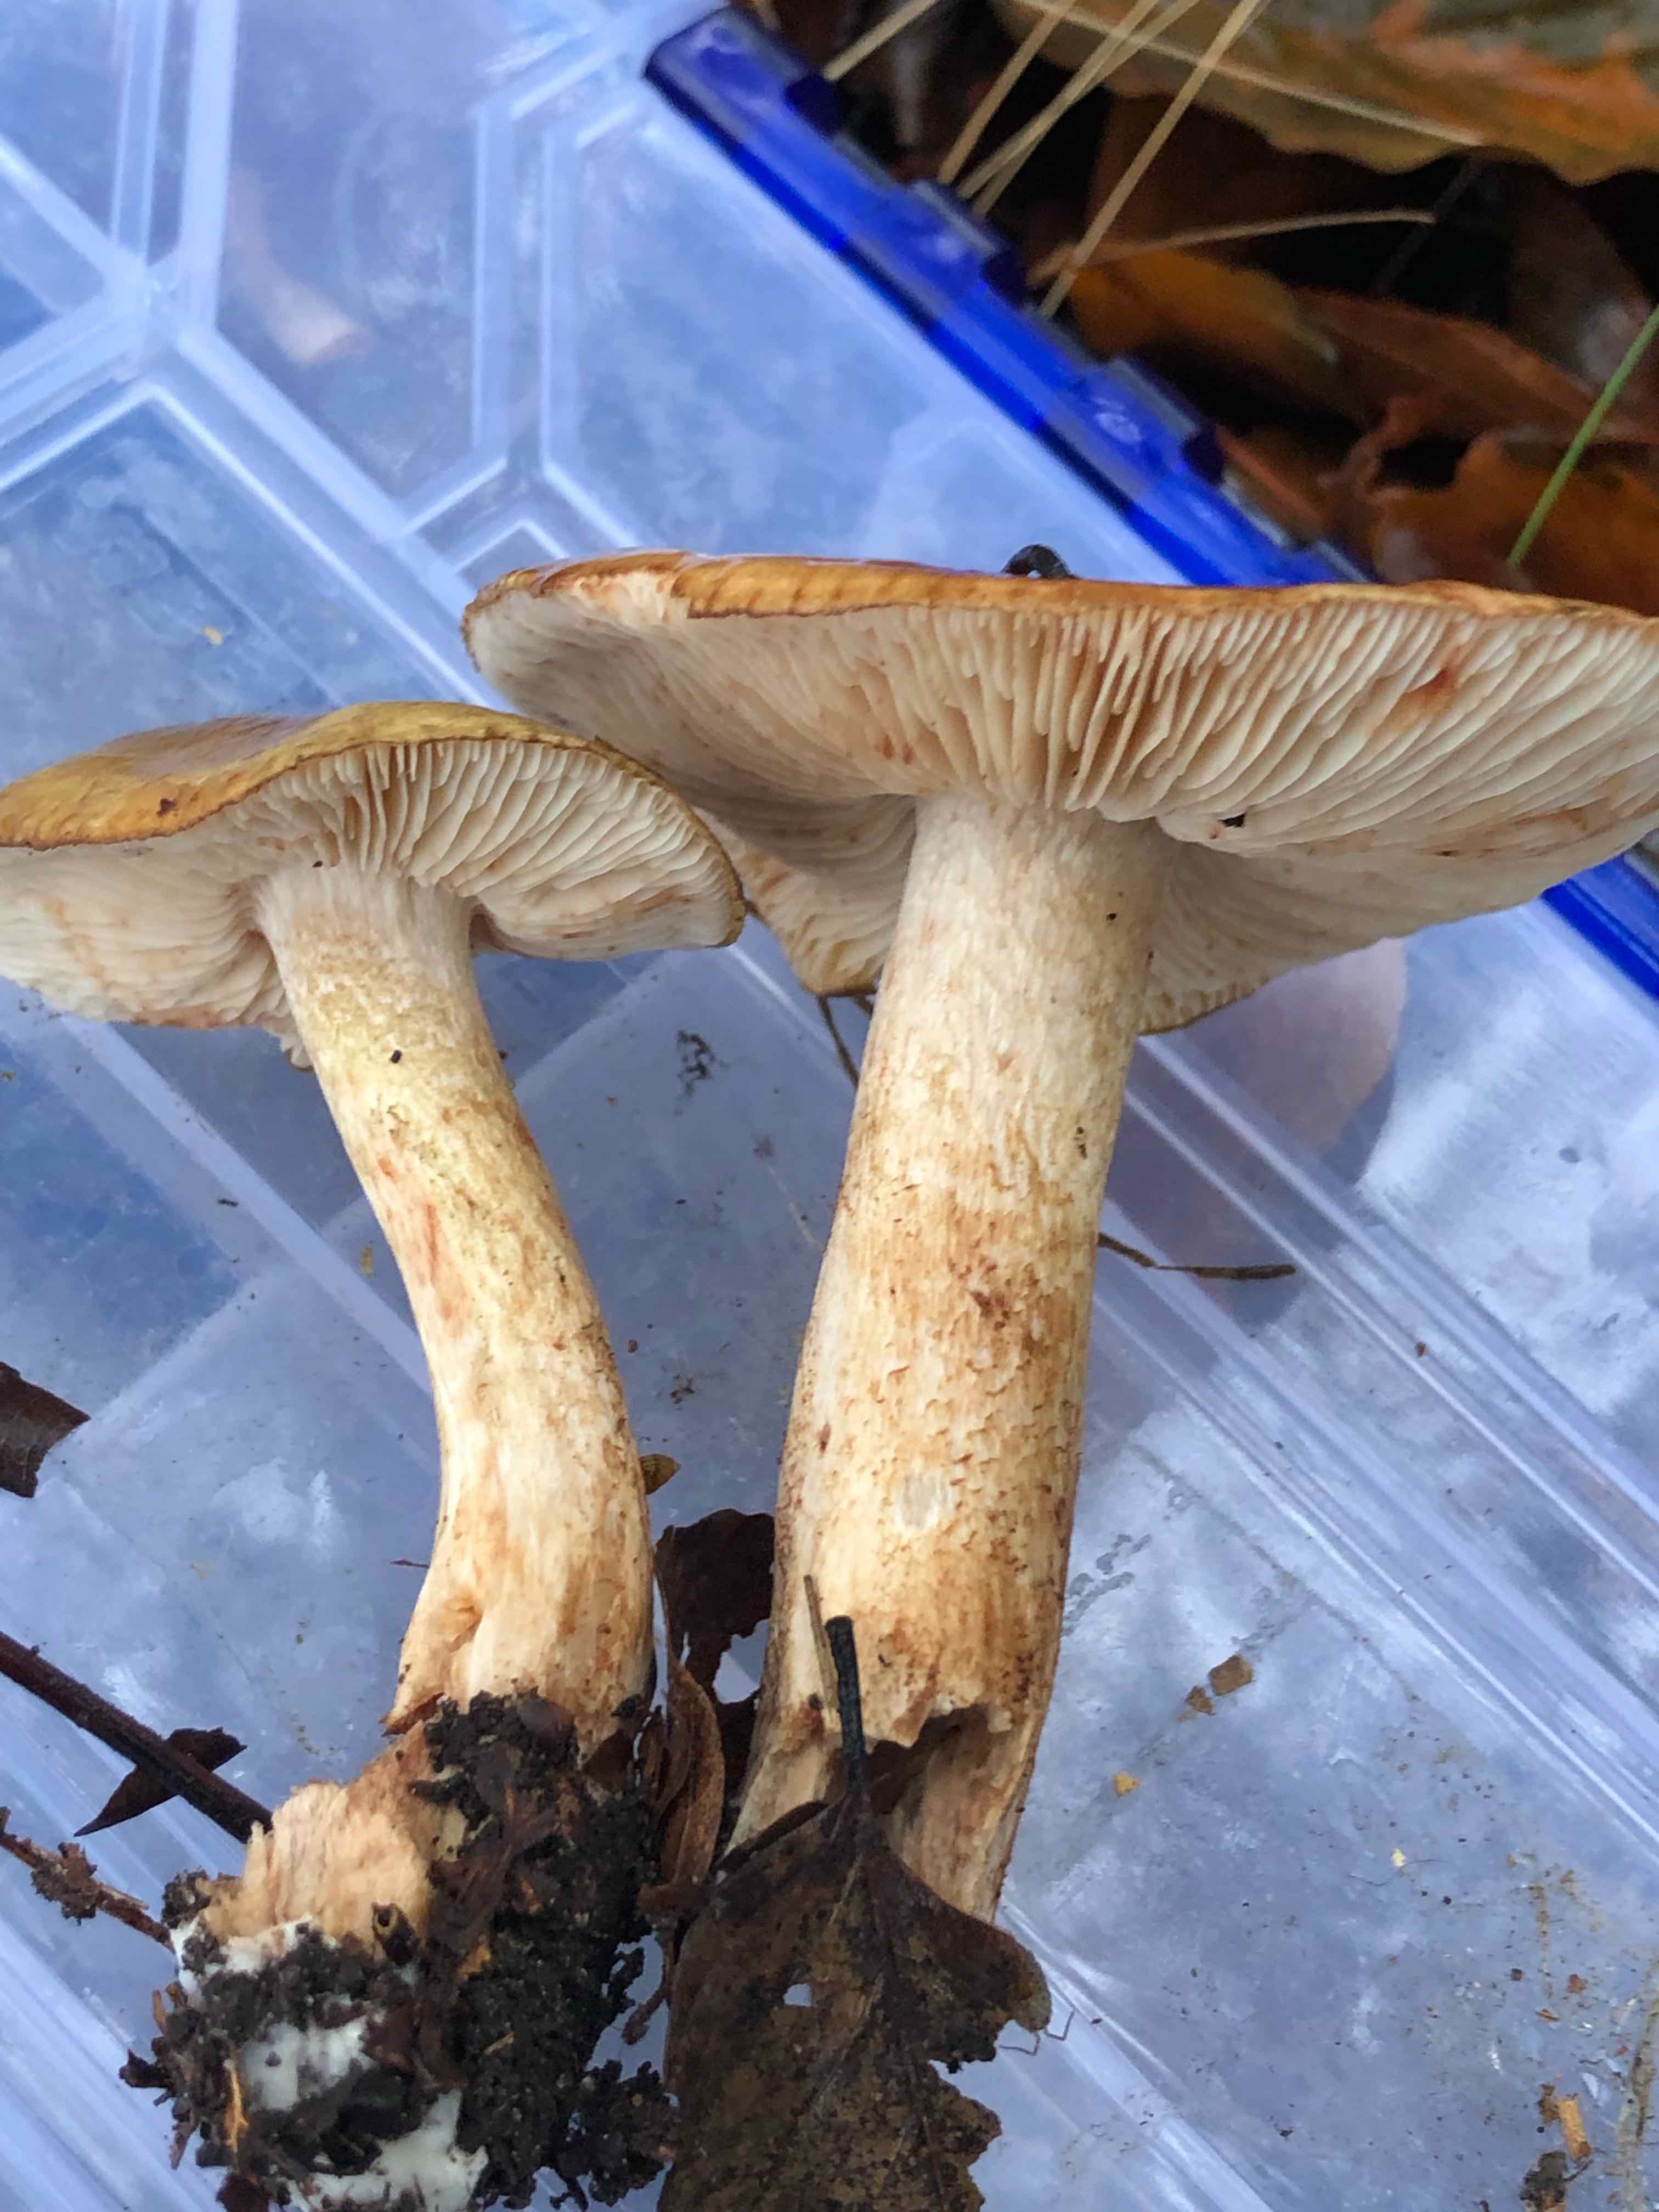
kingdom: Fungi
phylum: Basidiomycota
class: Agaricomycetes
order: Agaricales
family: Tricholomataceae
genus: Tricholoma
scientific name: Tricholoma ustale
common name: sveden ridderhat
